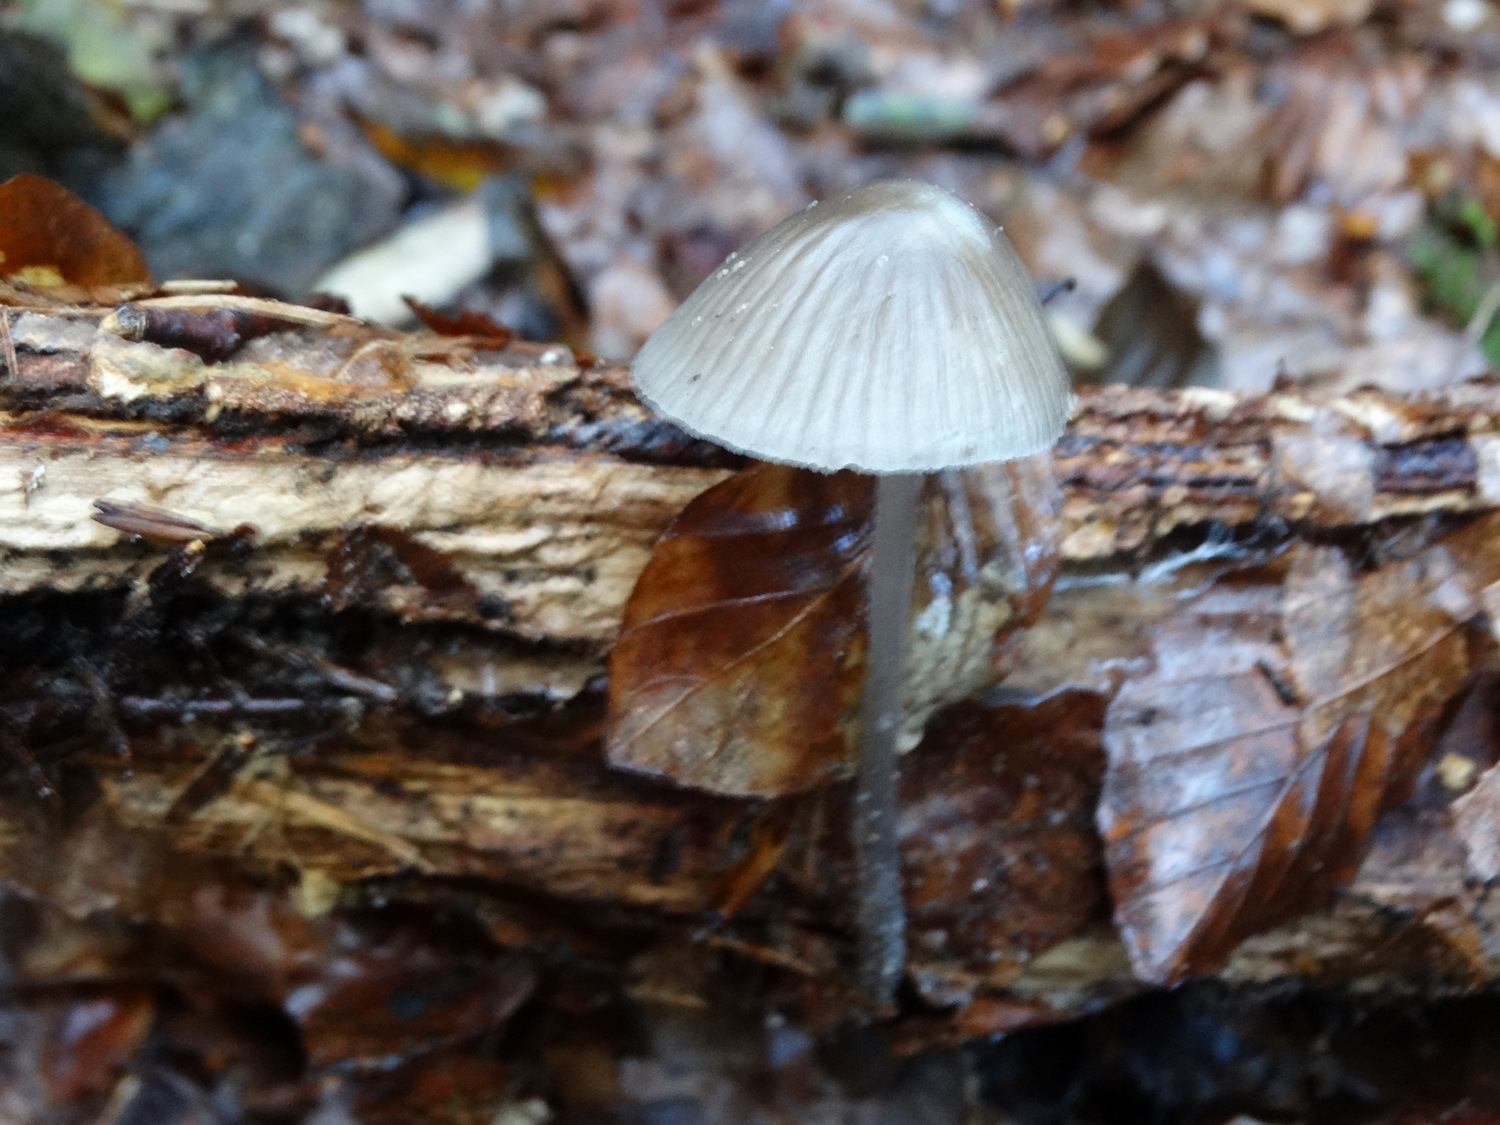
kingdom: Fungi
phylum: Basidiomycota
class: Agaricomycetes
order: Agaricales
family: Mycenaceae
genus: Mycena
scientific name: Mycena
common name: huesvamp
